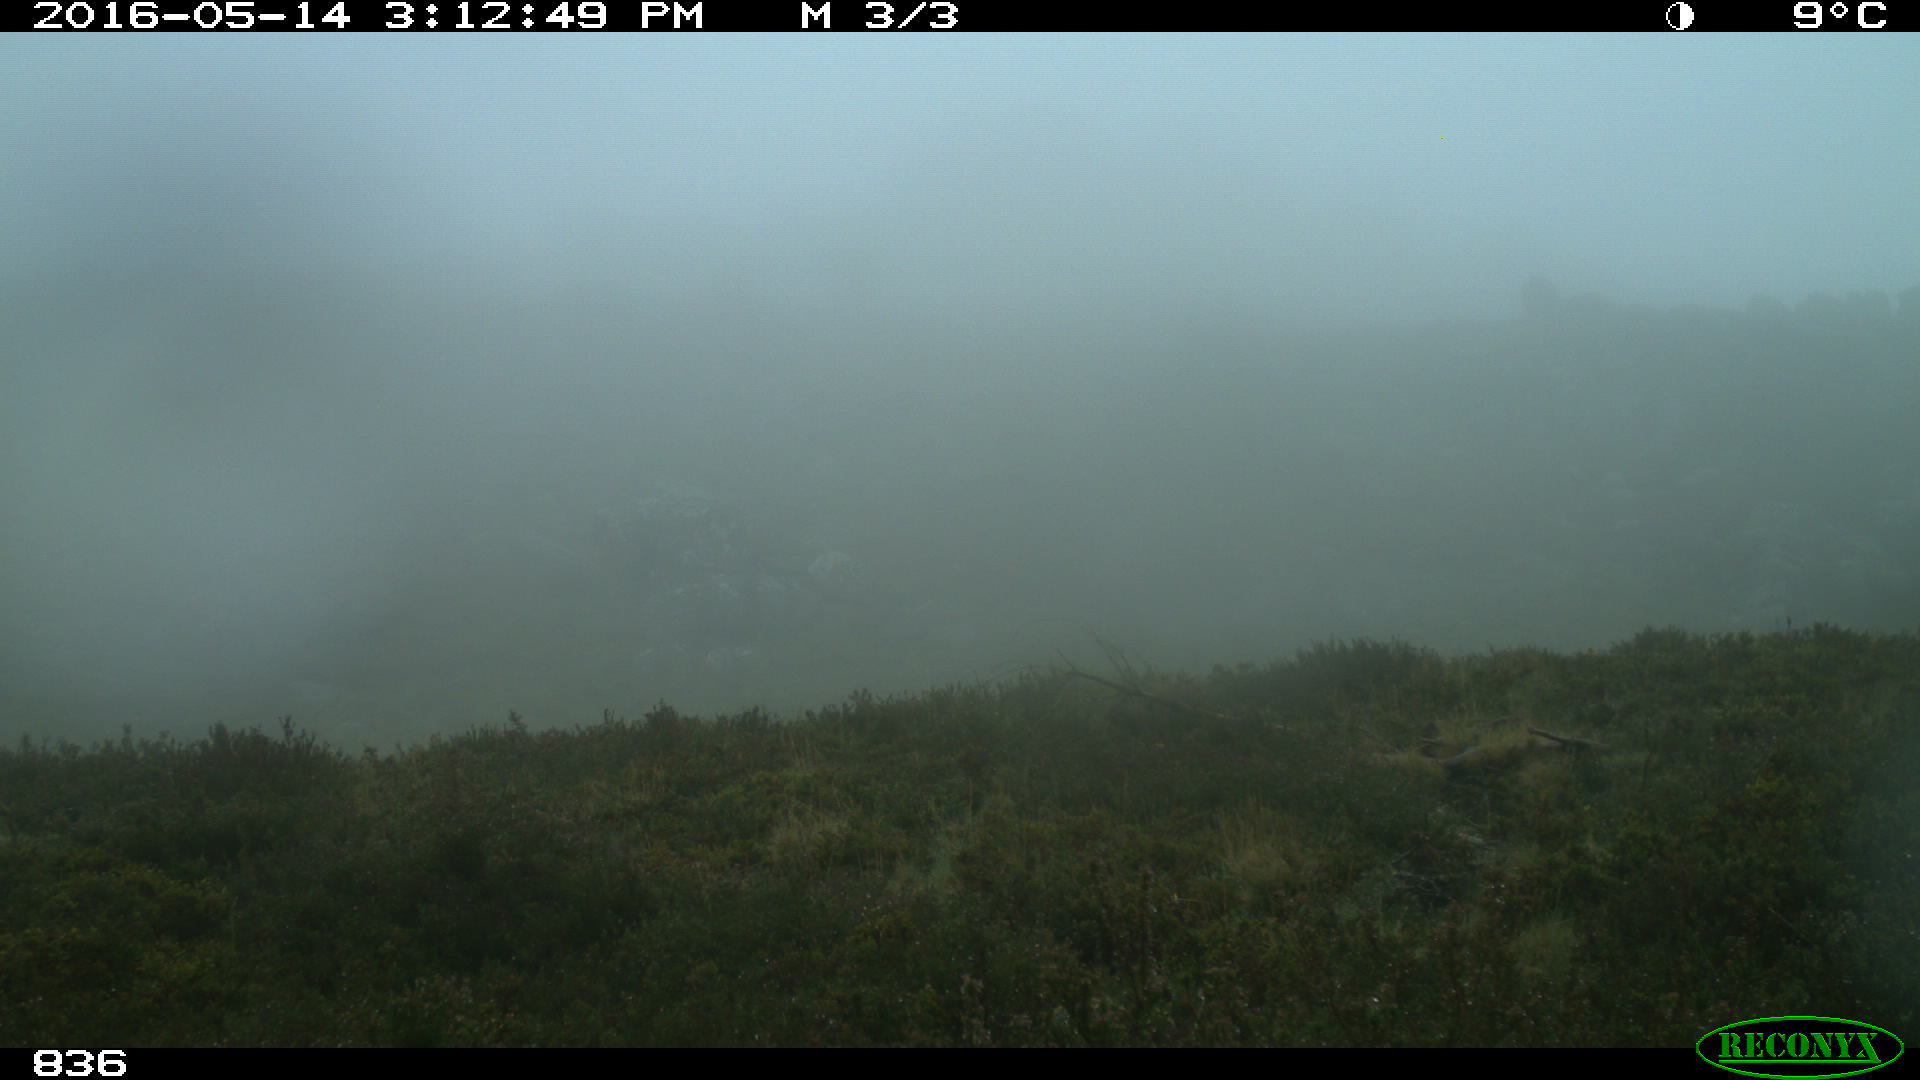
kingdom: Animalia
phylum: Chordata
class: Mammalia
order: Perissodactyla
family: Equidae
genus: Equus
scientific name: Equus caballus
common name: Horse
